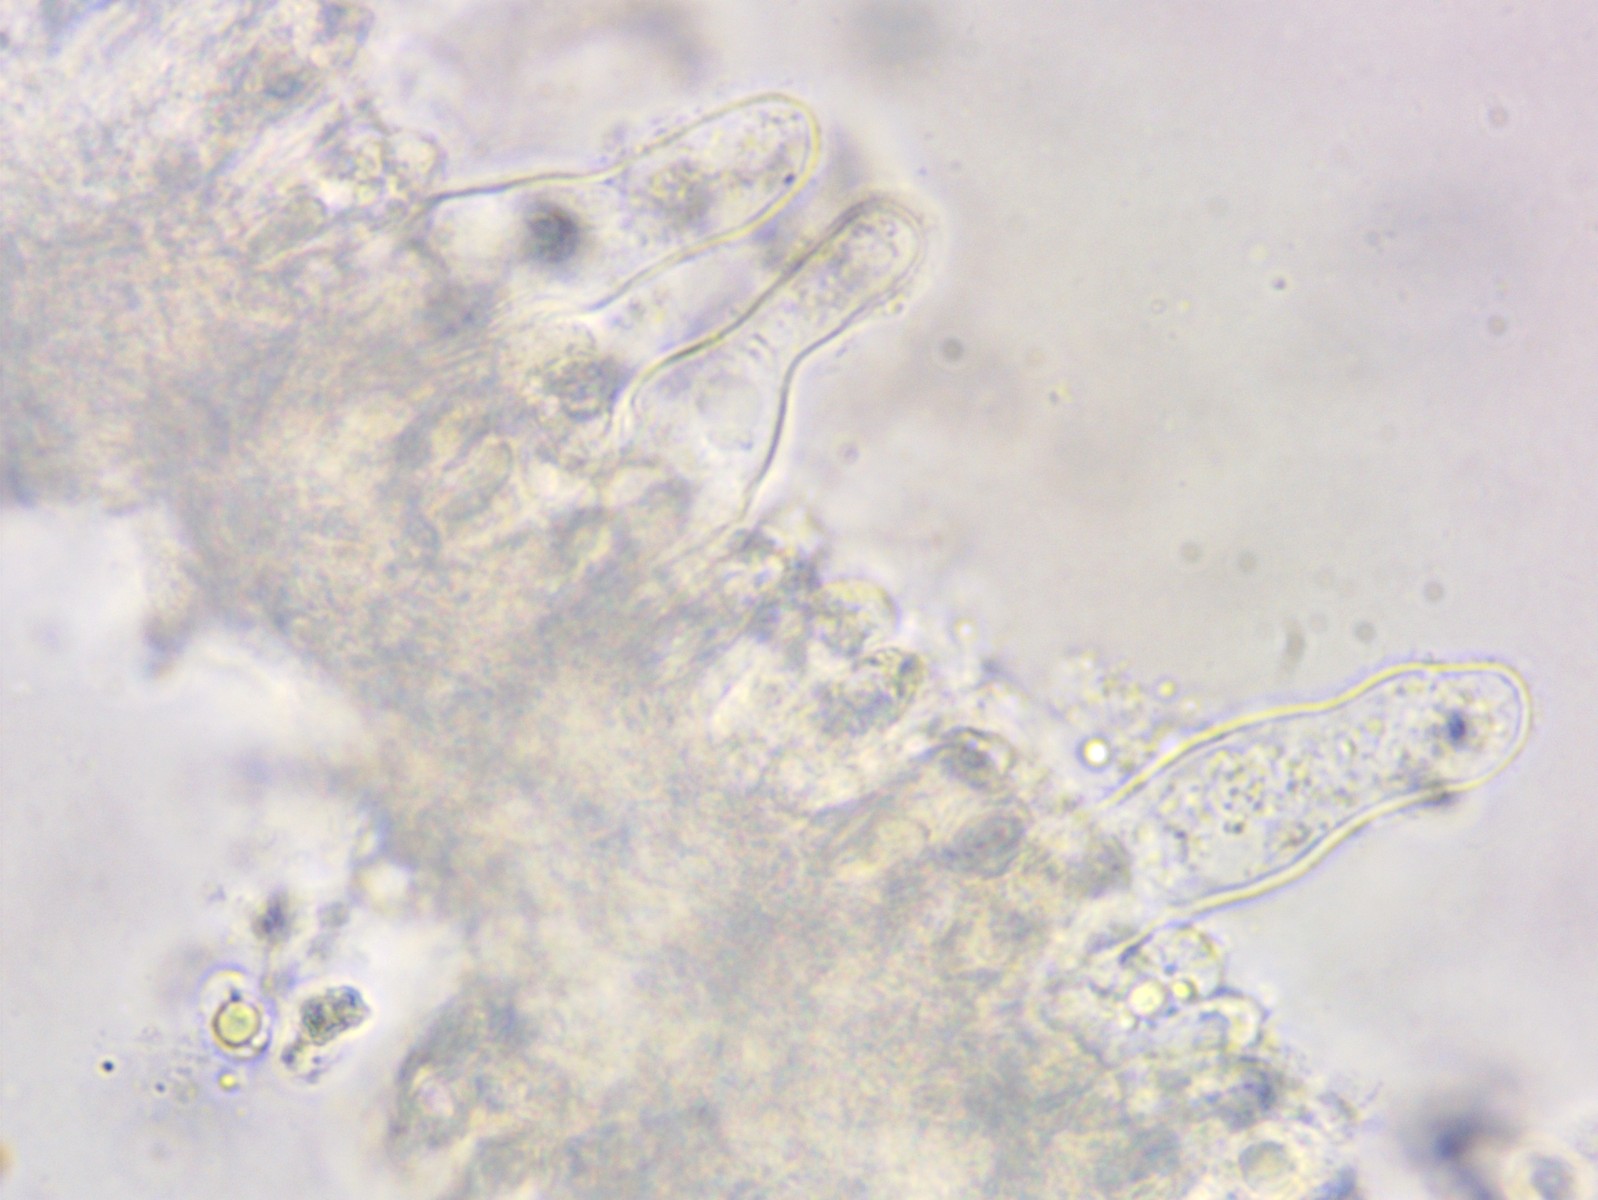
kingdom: Fungi
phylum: Basidiomycota
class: Agaricomycetes
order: Agaricales
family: Porotheleaceae
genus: Phloeomana
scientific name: Phloeomana minutula
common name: bleg huesvamp
